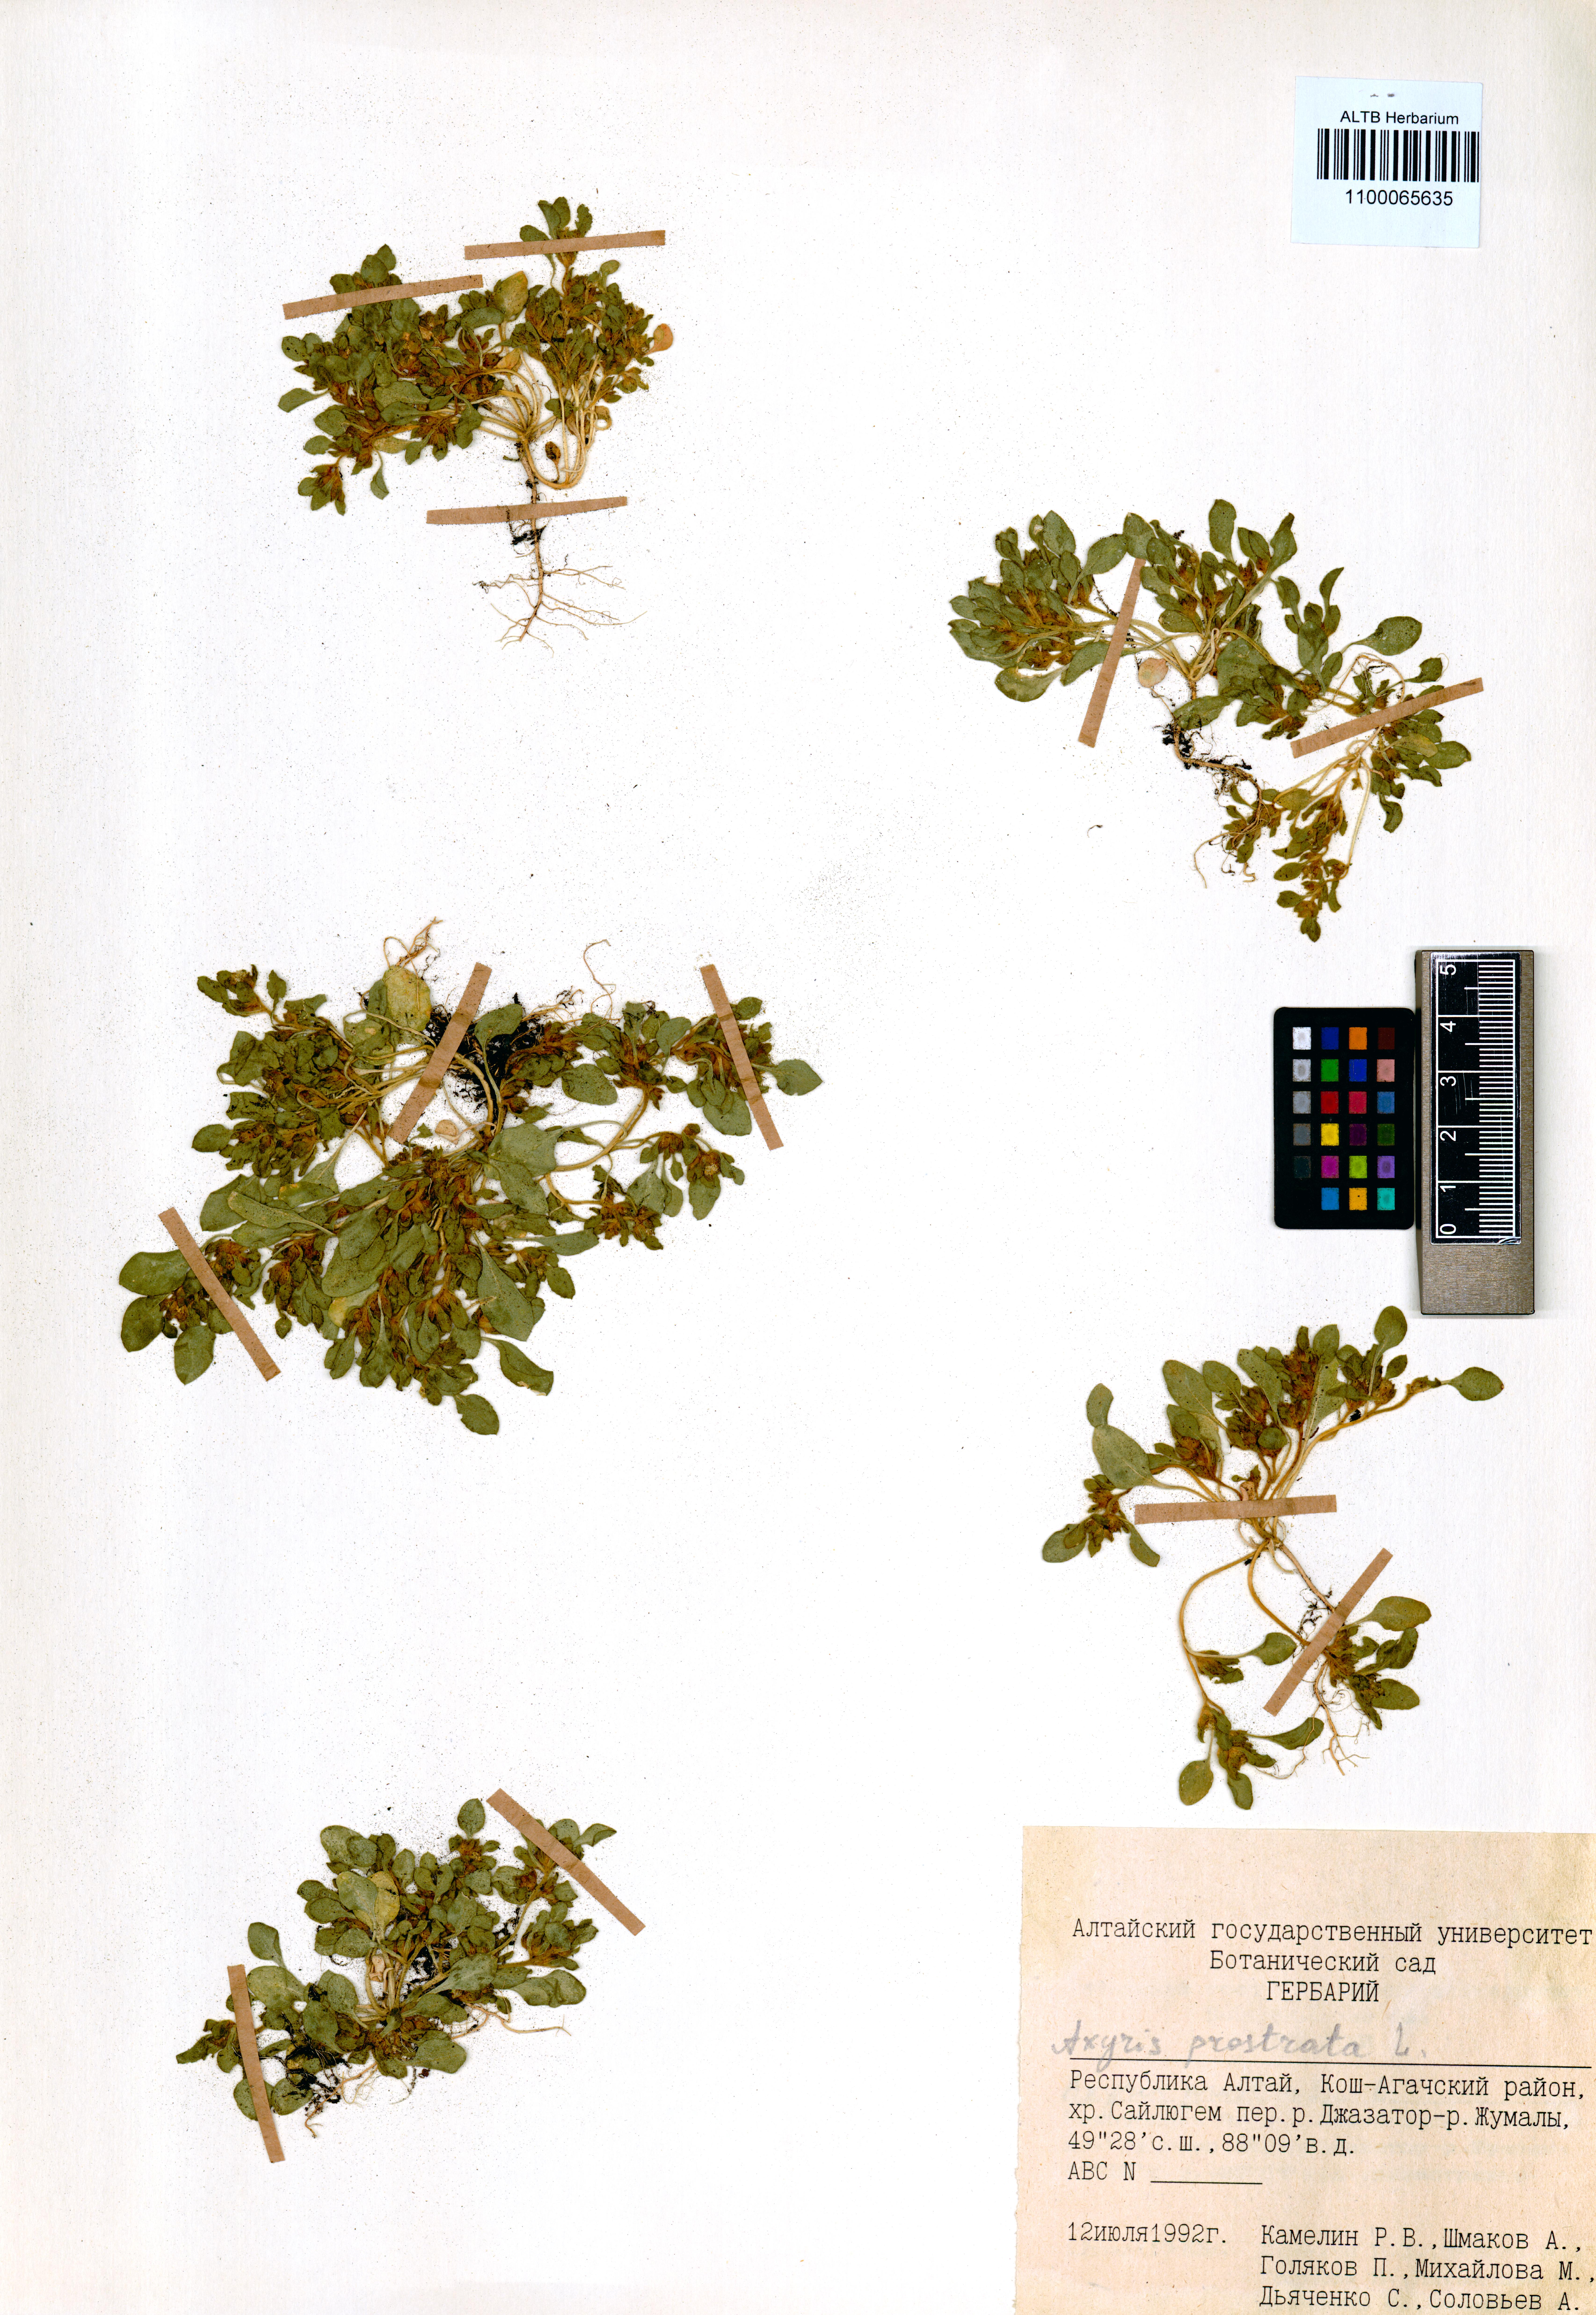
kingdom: Plantae
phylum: Tracheophyta
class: Magnoliopsida
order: Caryophyllales
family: Amaranthaceae
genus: Axyris
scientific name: Axyris prostrata
